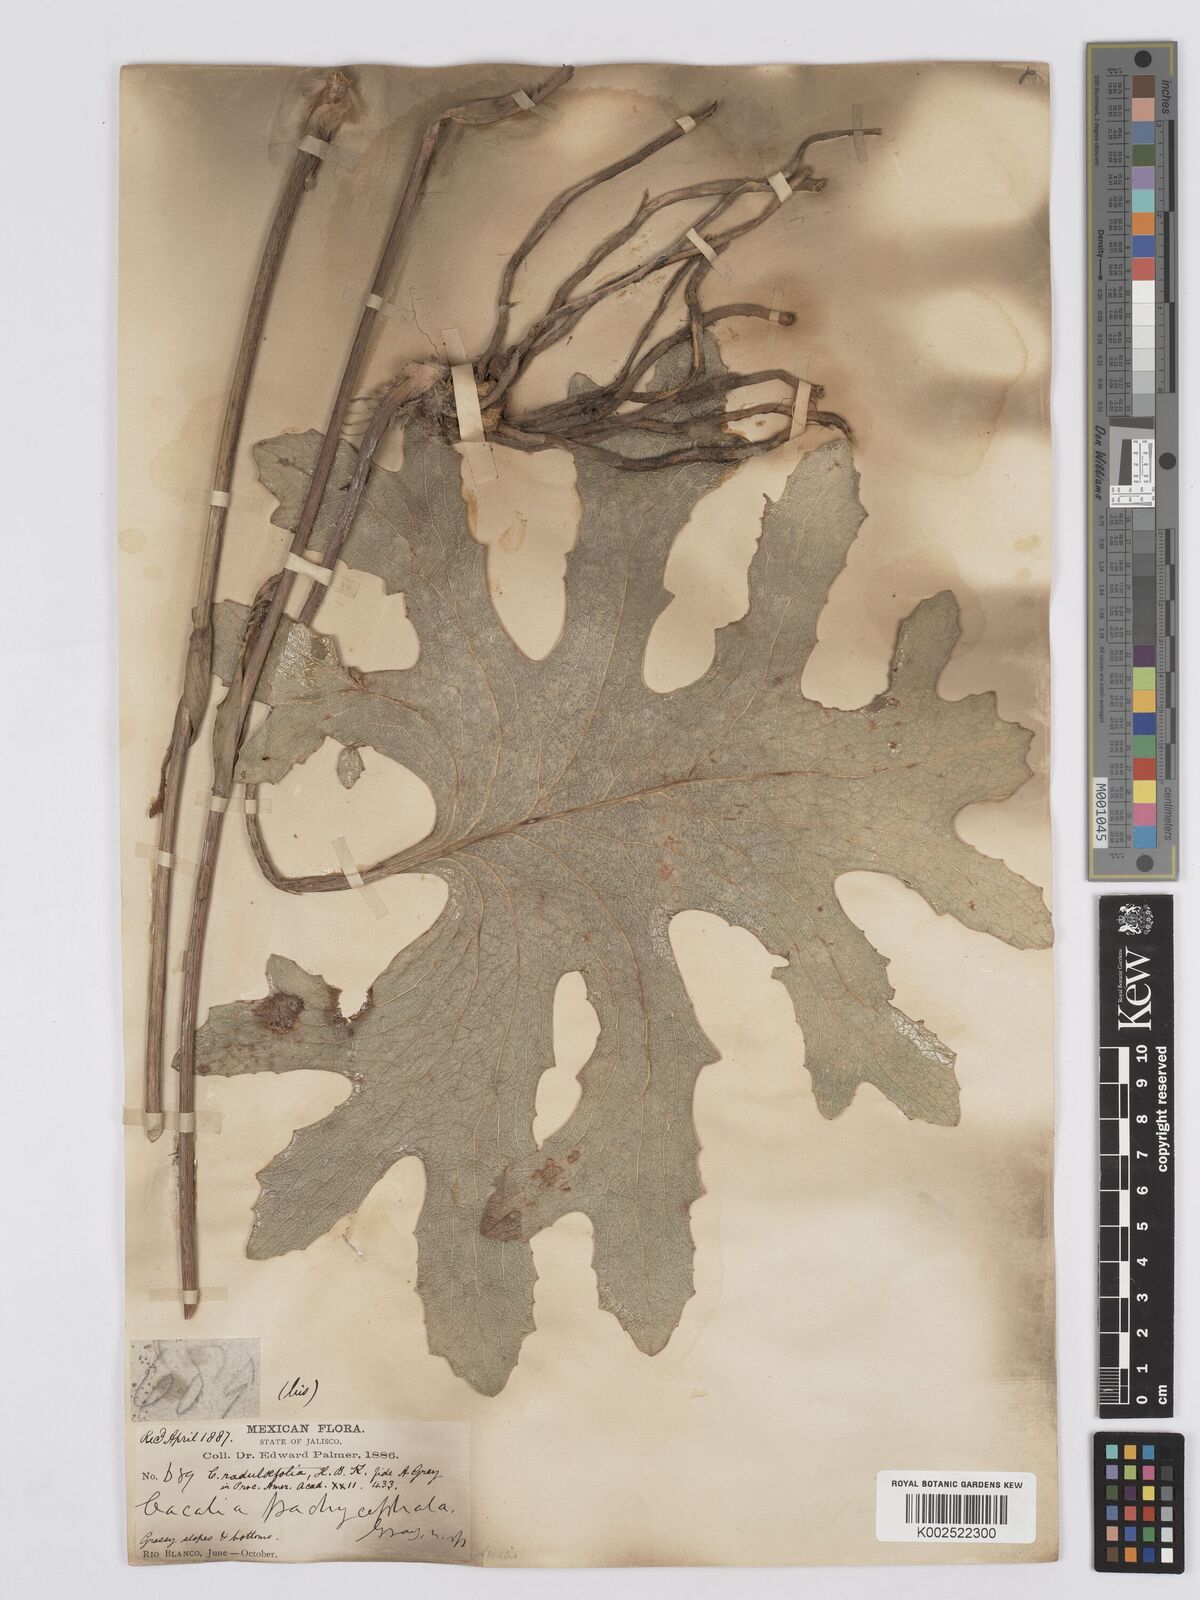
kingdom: Plantae
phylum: Tracheophyta
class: Magnoliopsida
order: Asterales
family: Asteraceae
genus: Psacalium
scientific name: Psacalium radulifolium
